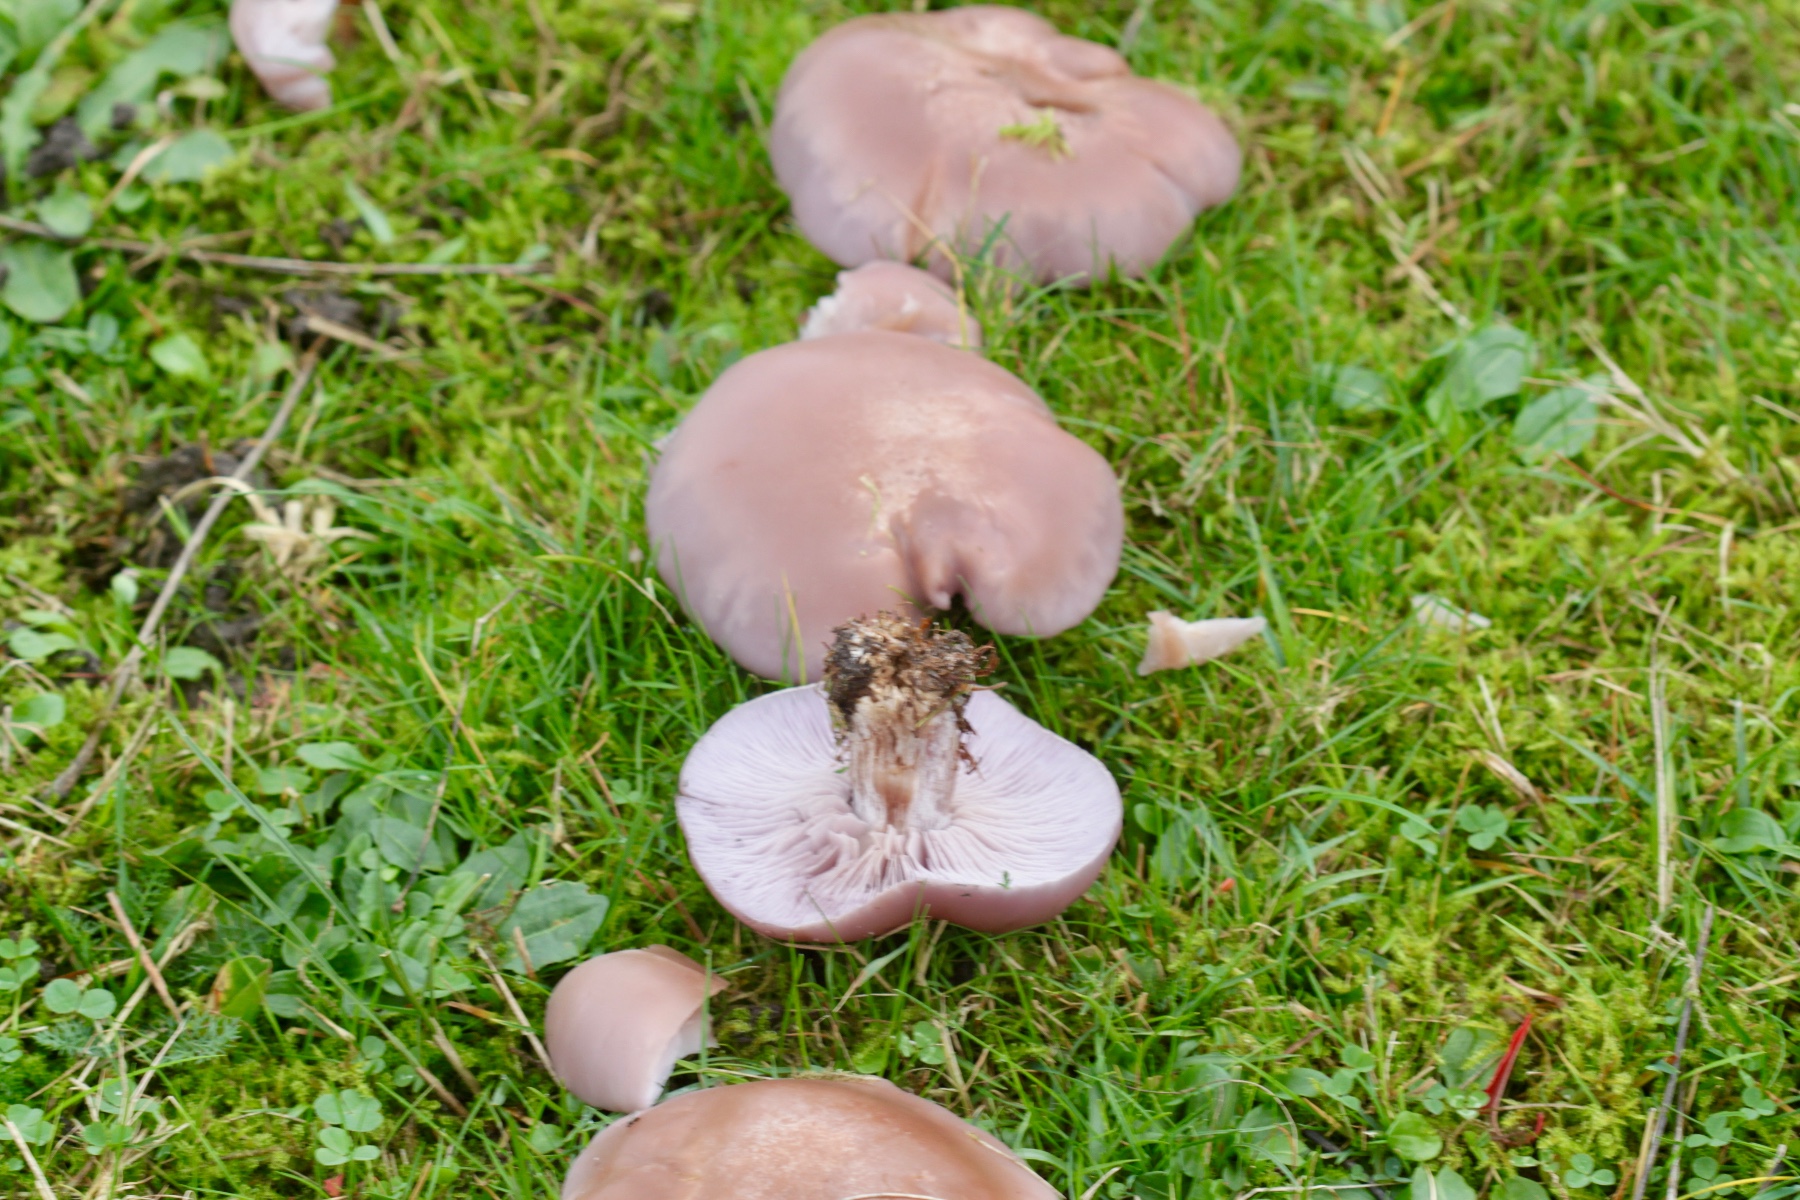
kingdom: Fungi
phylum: Basidiomycota
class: Agaricomycetes
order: Agaricales
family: Tricholomataceae
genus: Lepista
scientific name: Lepista nuda
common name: violet hekseringshat
